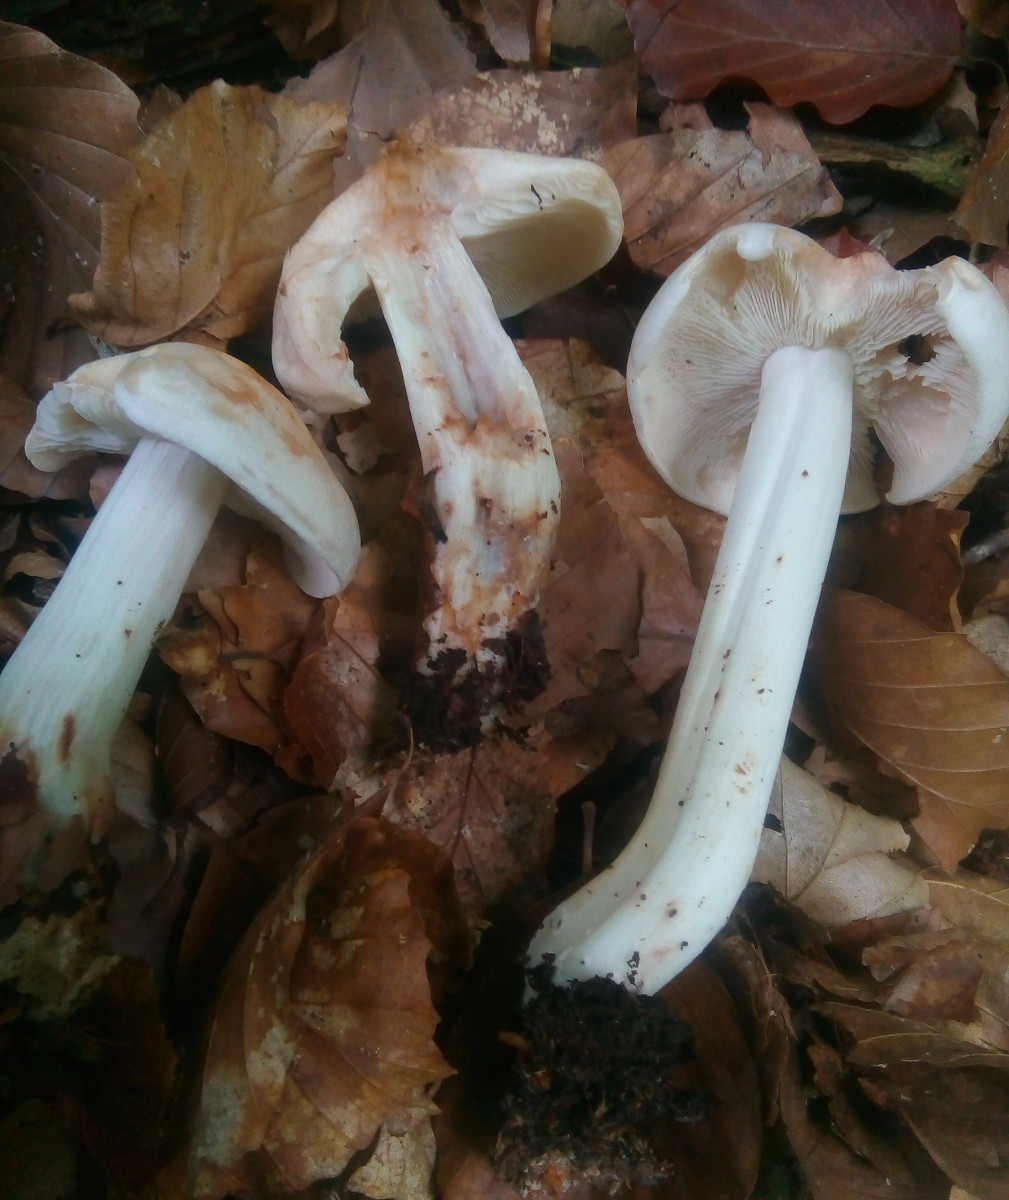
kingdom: Fungi
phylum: Basidiomycota
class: Agaricomycetes
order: Agaricales
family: Omphalotaceae
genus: Rhodocollybia
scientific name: Rhodocollybia maculata
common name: plettet fladhat
